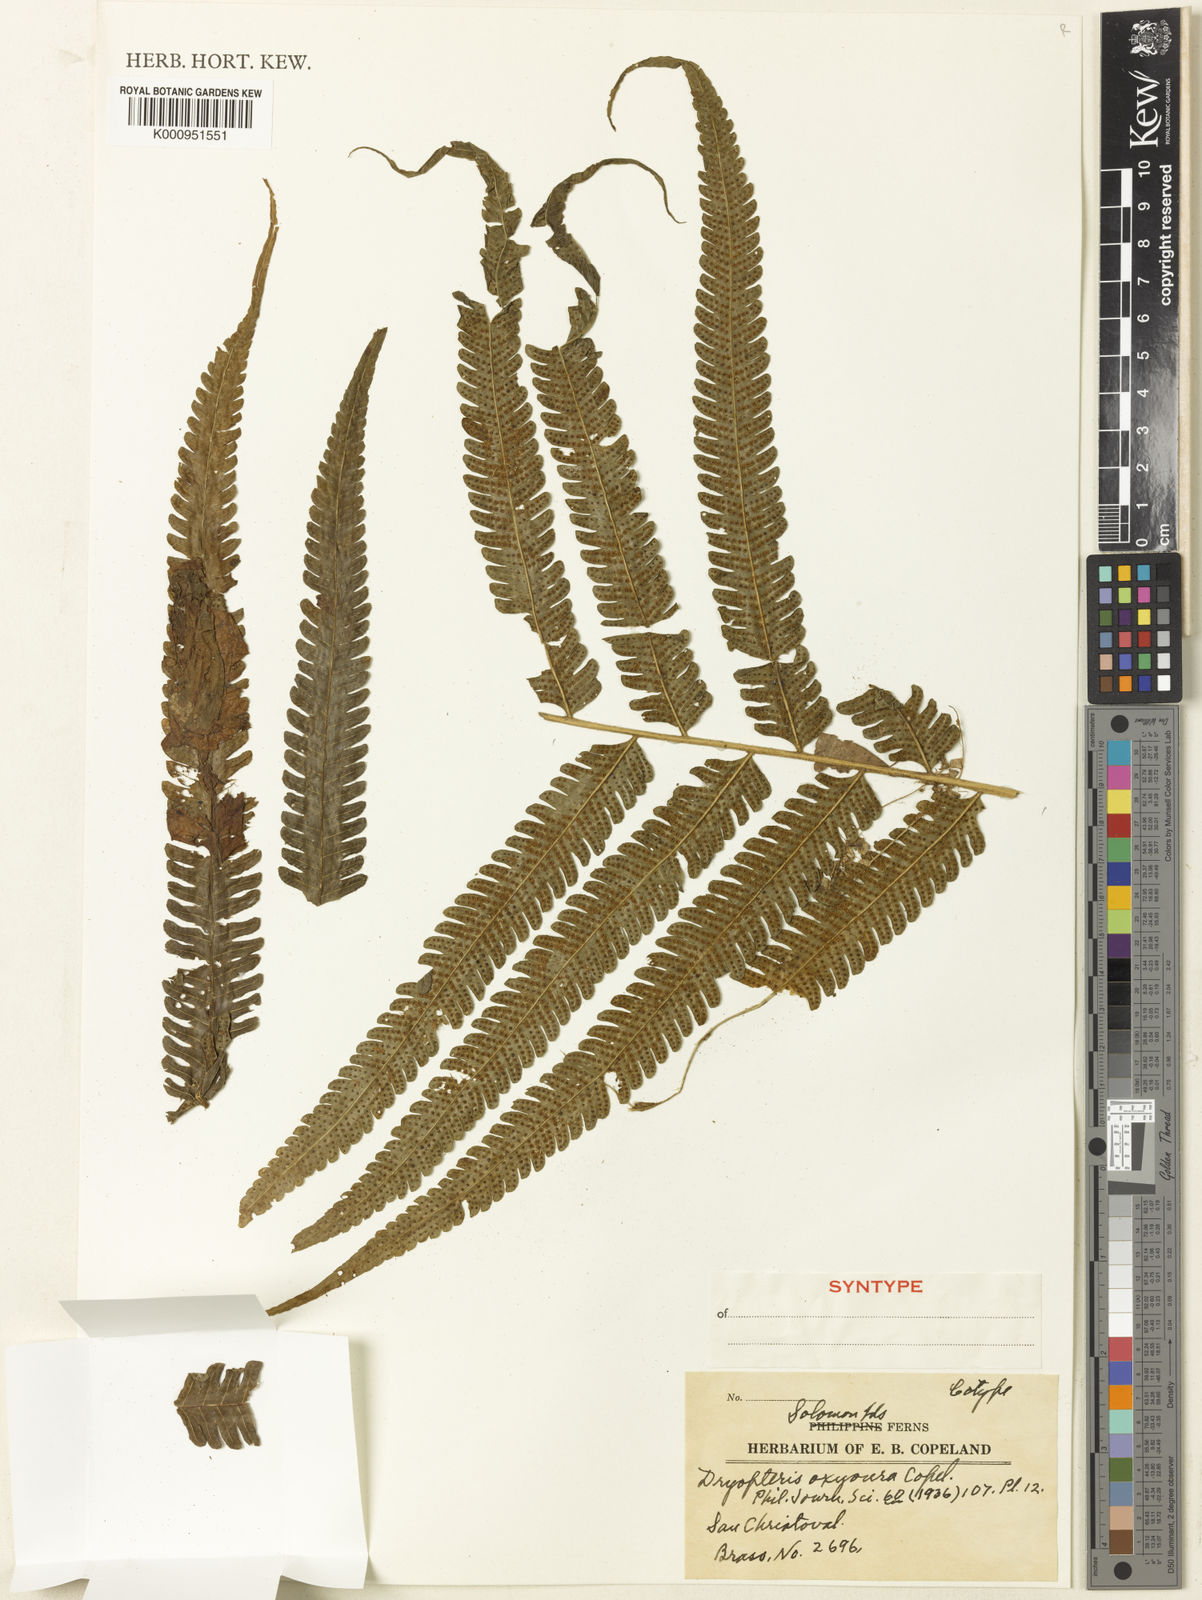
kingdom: Plantae
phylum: Tracheophyta
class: Polypodiopsida
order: Polypodiales
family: Thelypteridaceae
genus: Reholttumia
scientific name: Reholttumia oxyoura
